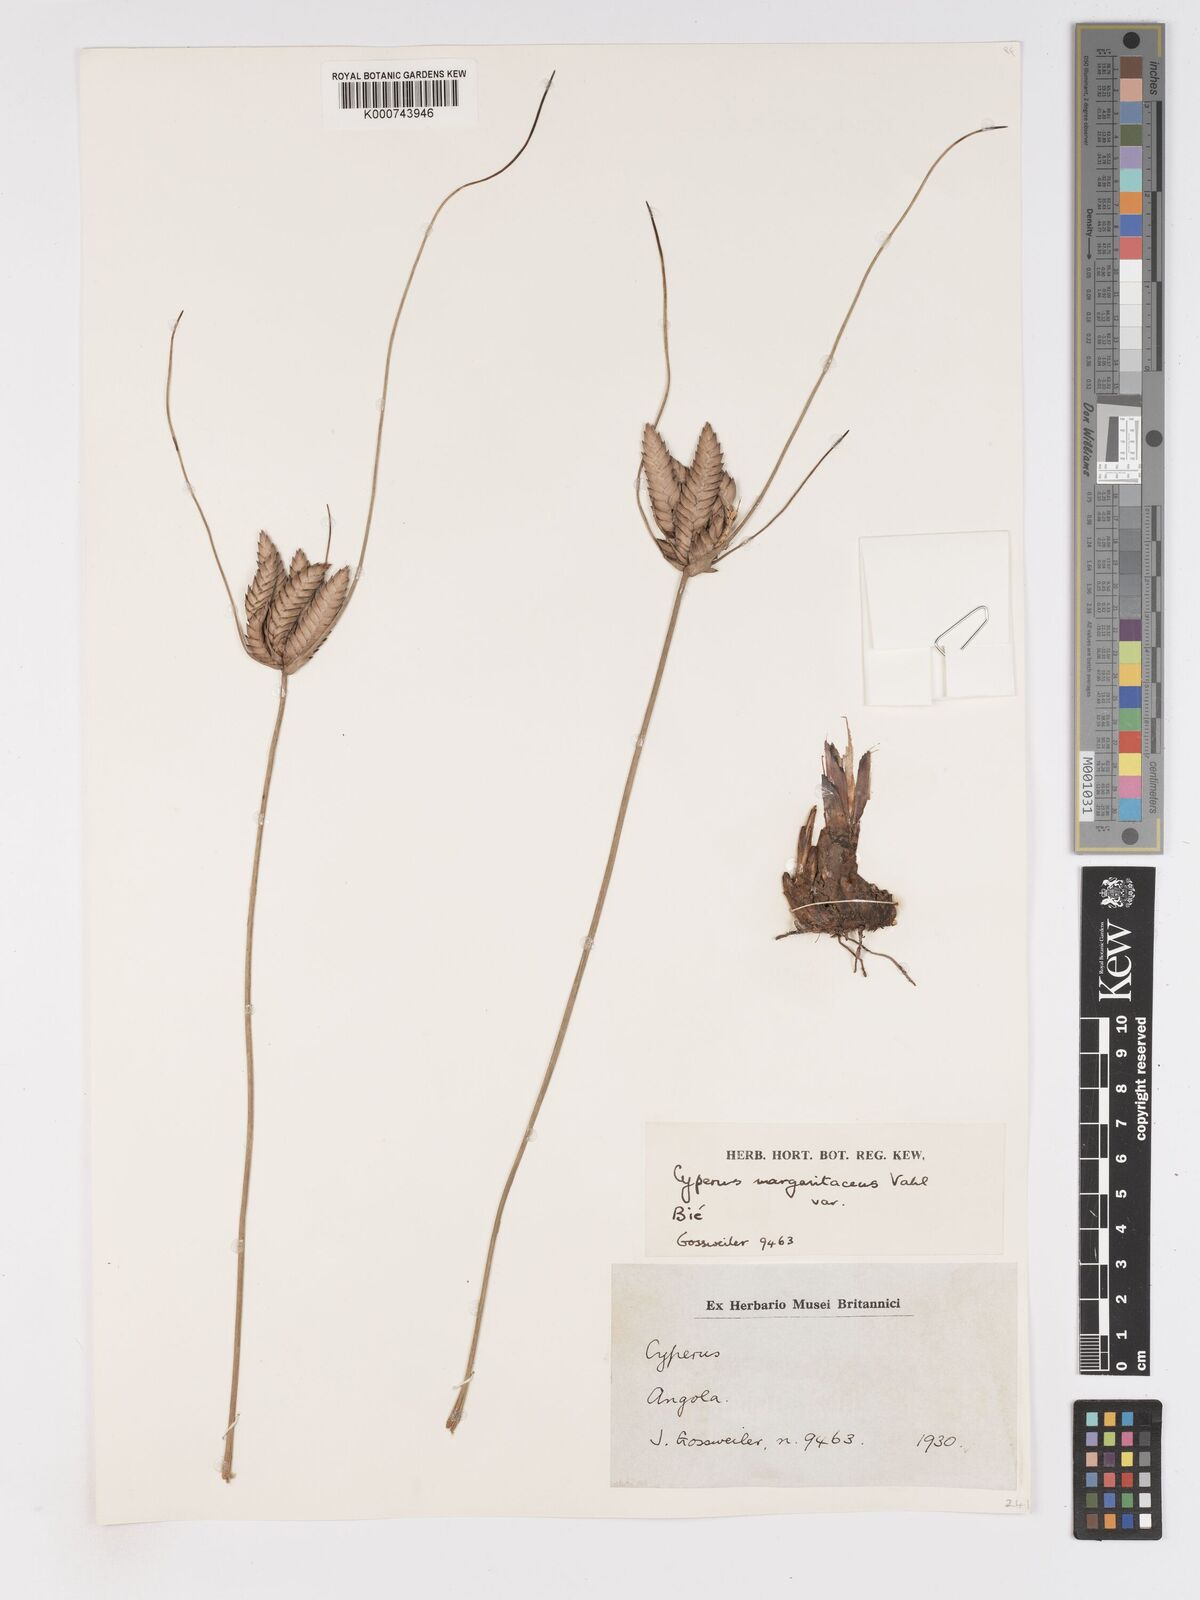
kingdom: Plantae
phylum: Tracheophyta
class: Liliopsida
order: Poales
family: Cyperaceae
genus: Cyperus
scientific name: Cyperus margaritaceus
